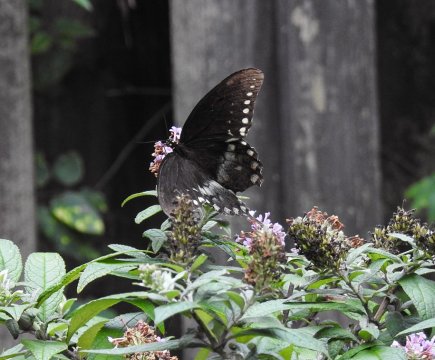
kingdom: Animalia
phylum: Arthropoda
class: Insecta
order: Lepidoptera
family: Papilionidae
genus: Pterourus
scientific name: Pterourus troilus
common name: Spicebush Swallowtail
